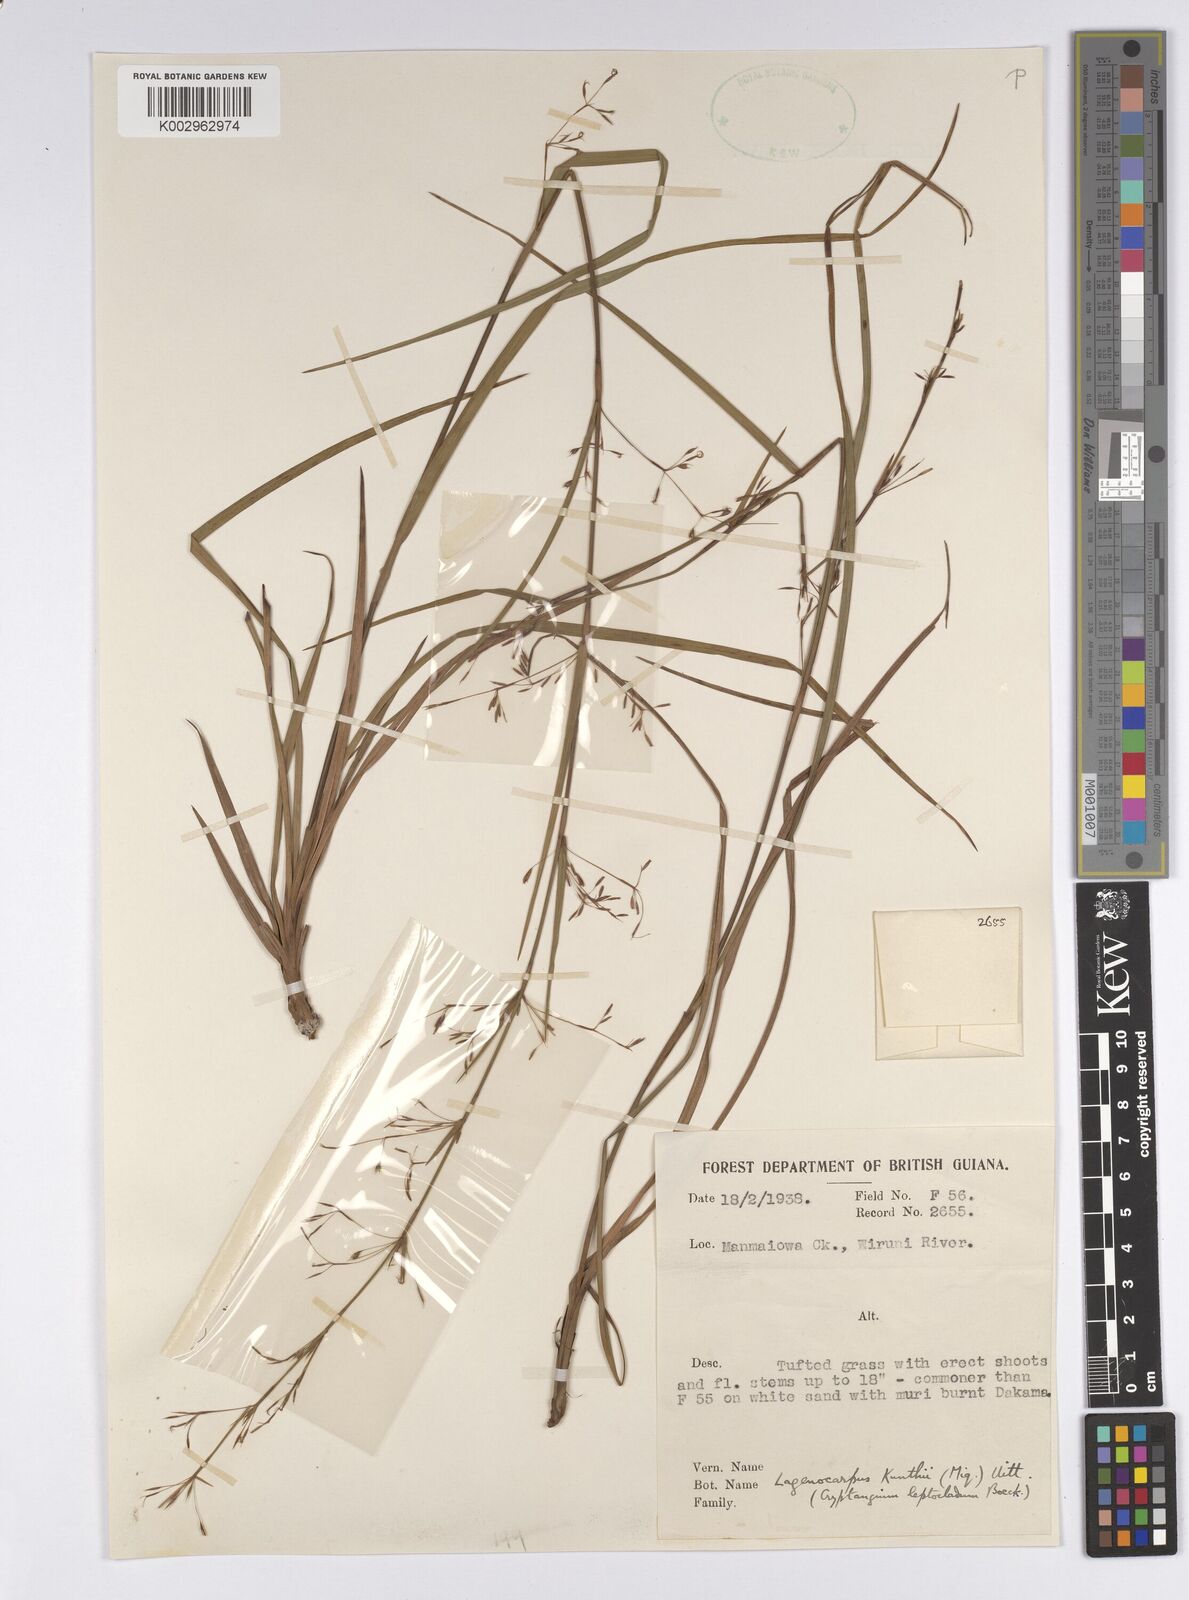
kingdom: Plantae
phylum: Tracheophyta
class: Liliopsida
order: Poales
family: Cyperaceae
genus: Cryptangium
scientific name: Cryptangium verticillatum
